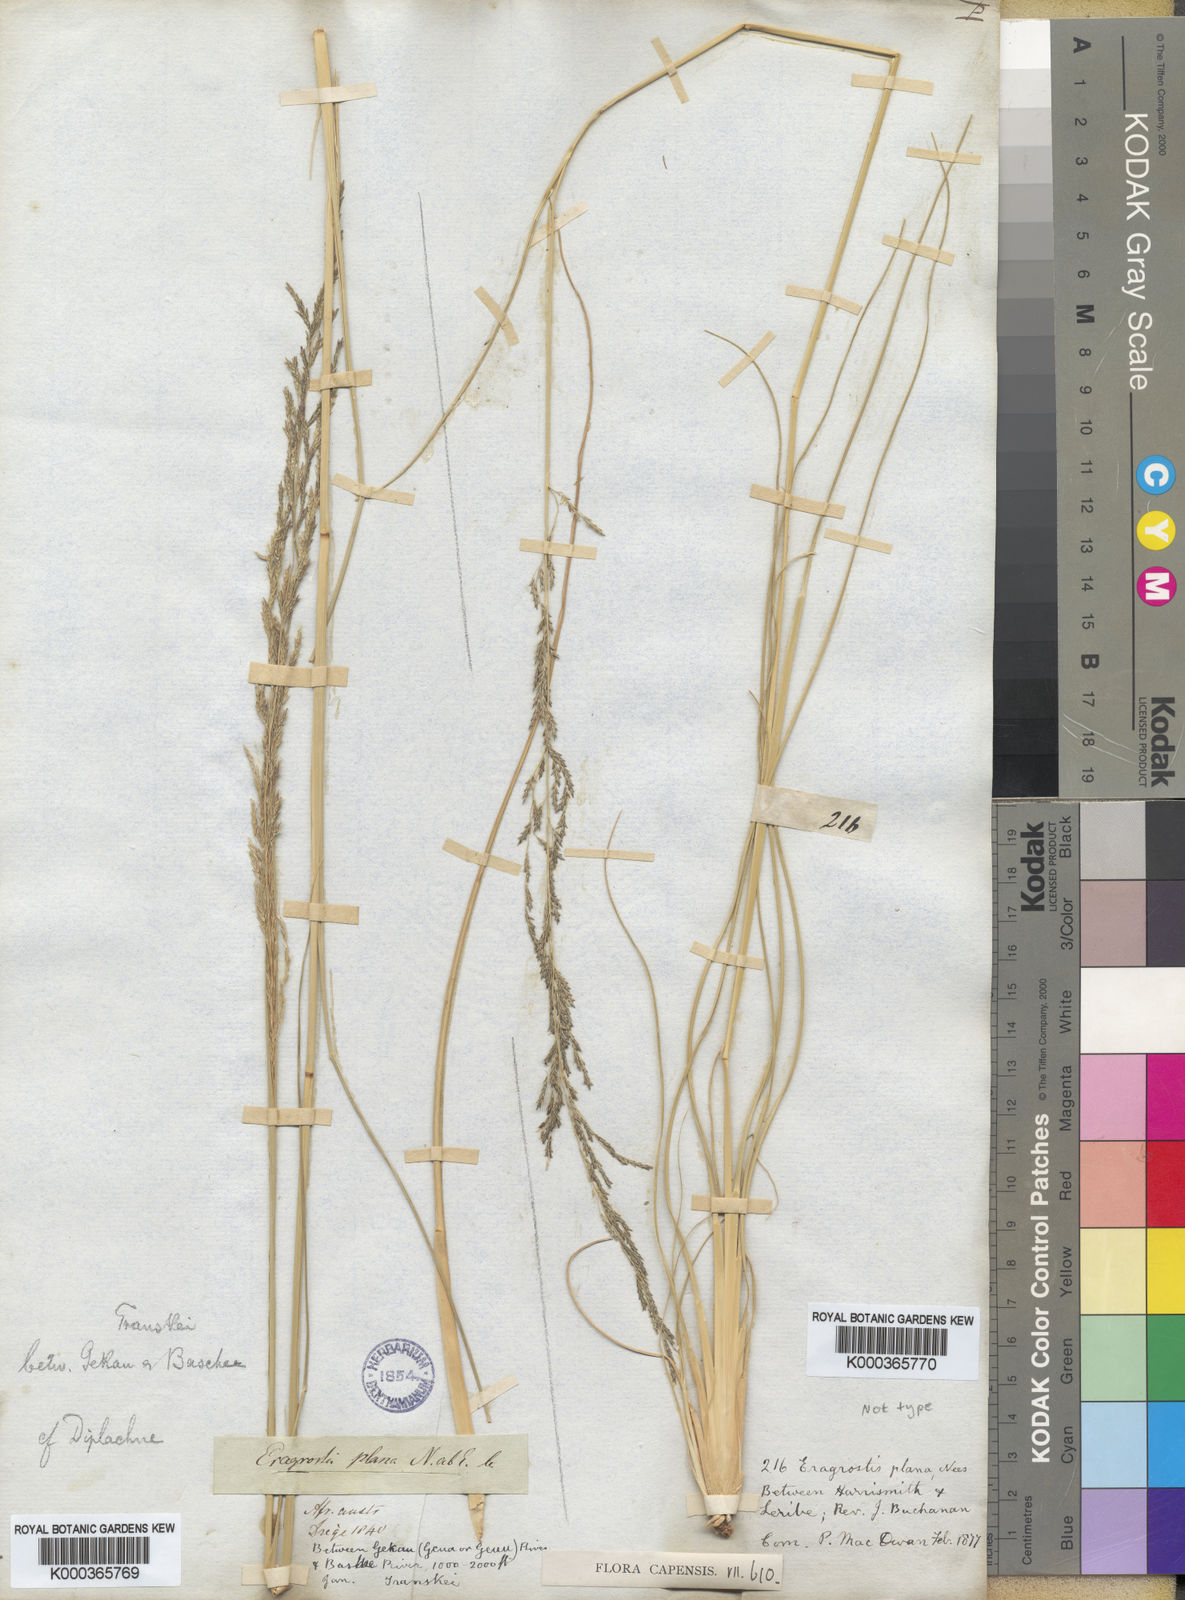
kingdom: Plantae
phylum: Tracheophyta
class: Liliopsida
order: Poales
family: Poaceae
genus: Eragrostis
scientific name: Eragrostis plana
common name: South african lovegrass
